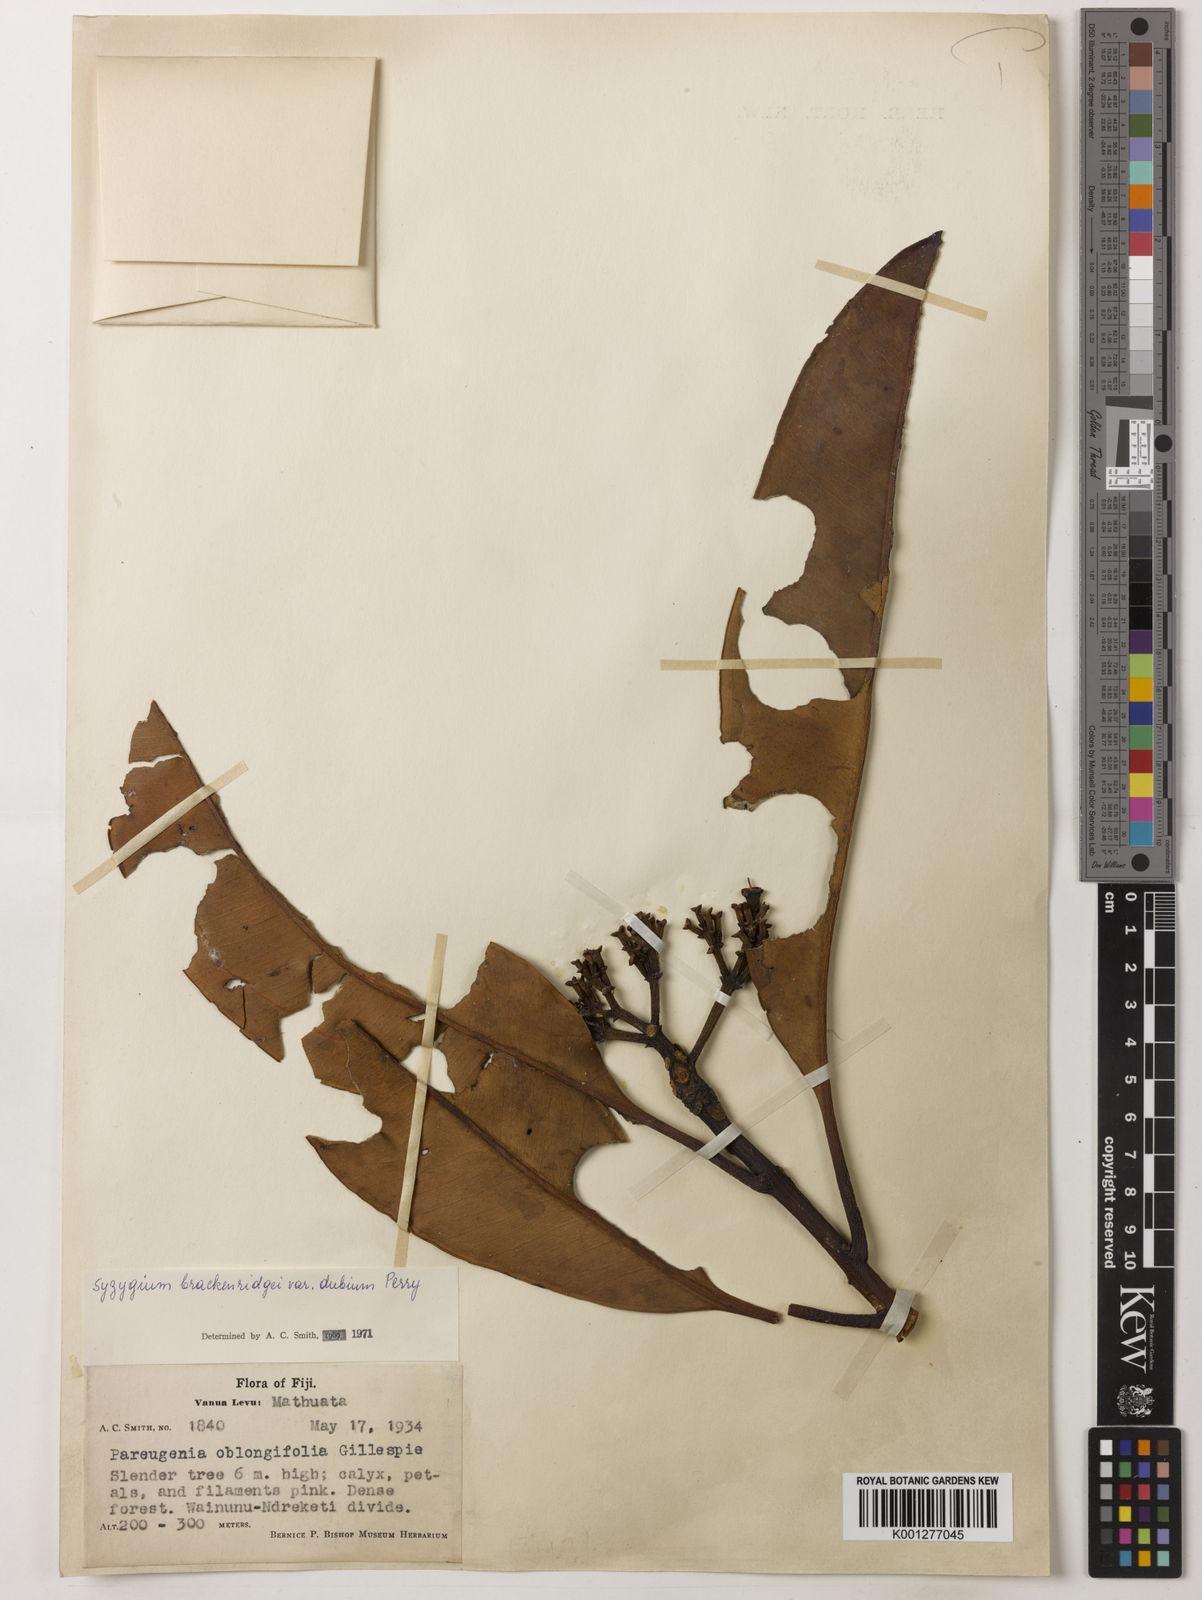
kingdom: Plantae
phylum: Tracheophyta
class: Magnoliopsida
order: Myrtales
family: Myrtaceae
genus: Syzygium
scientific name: Syzygium
